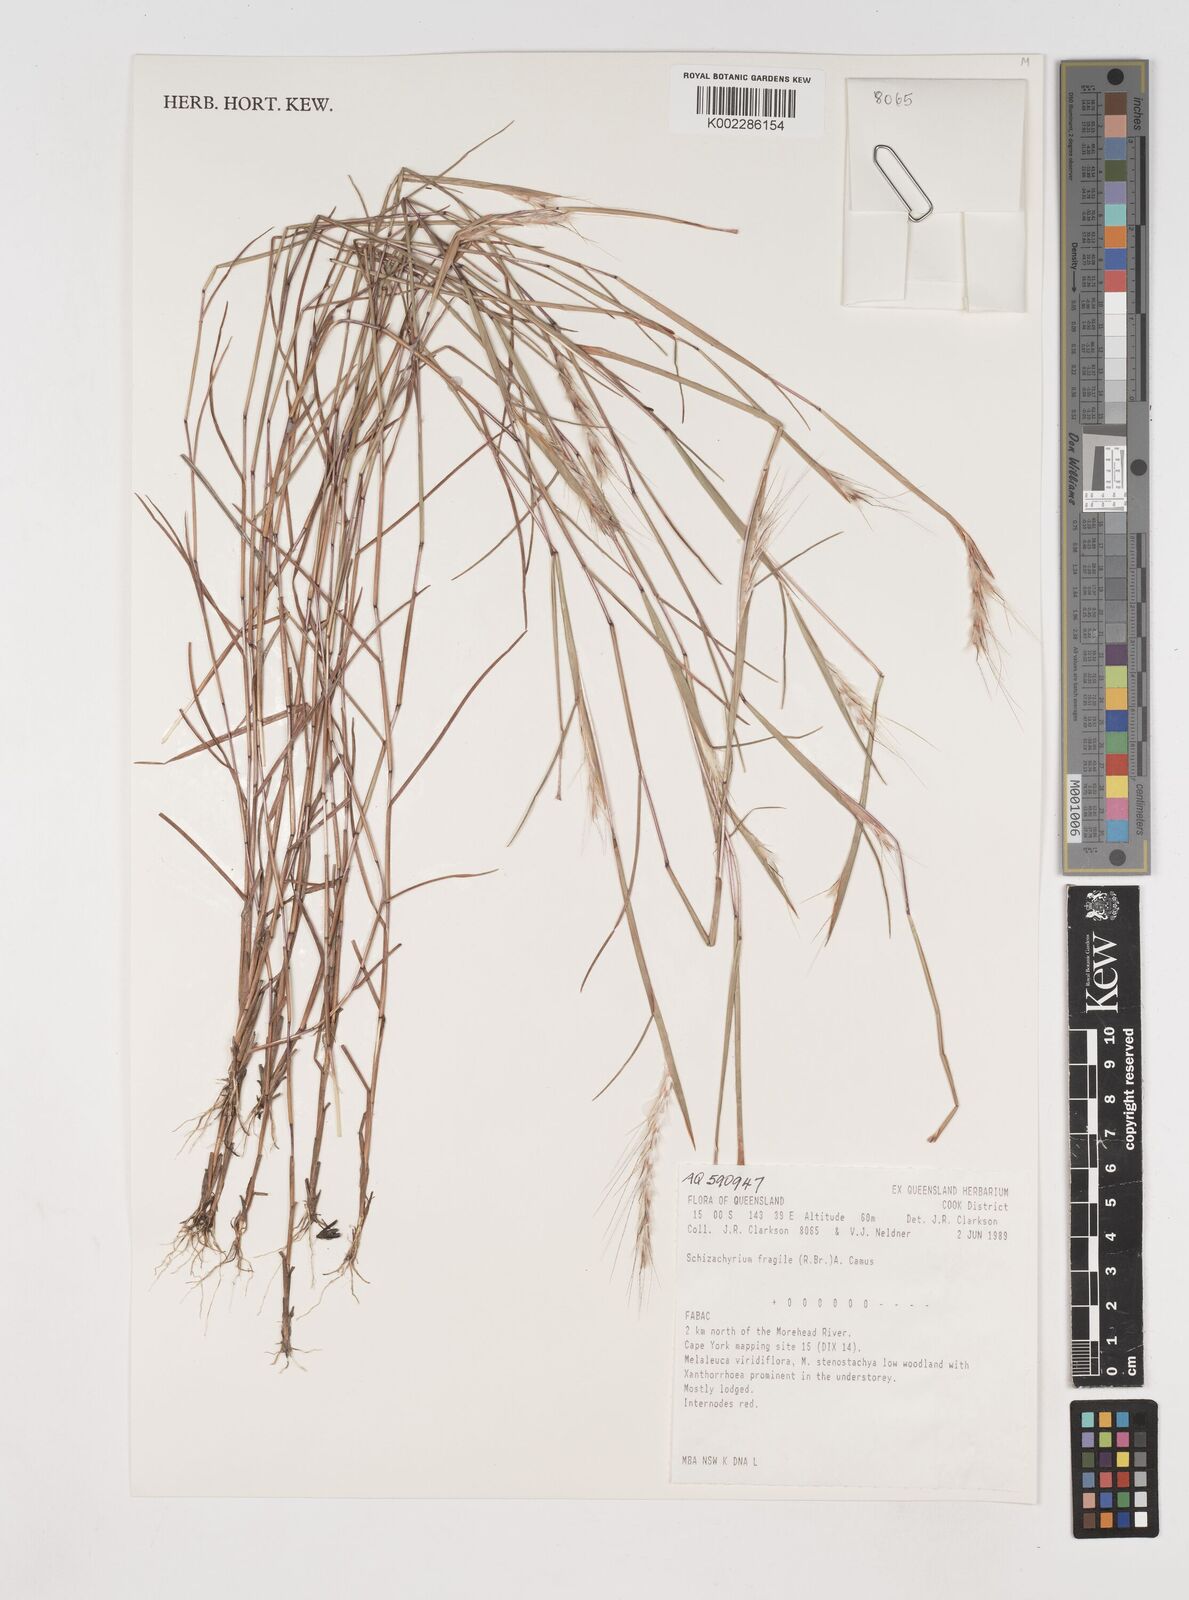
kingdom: Plantae
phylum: Tracheophyta
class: Liliopsida
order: Poales
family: Poaceae
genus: Schizachyrium
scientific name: Schizachyrium fragile
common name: Red spathe grass
